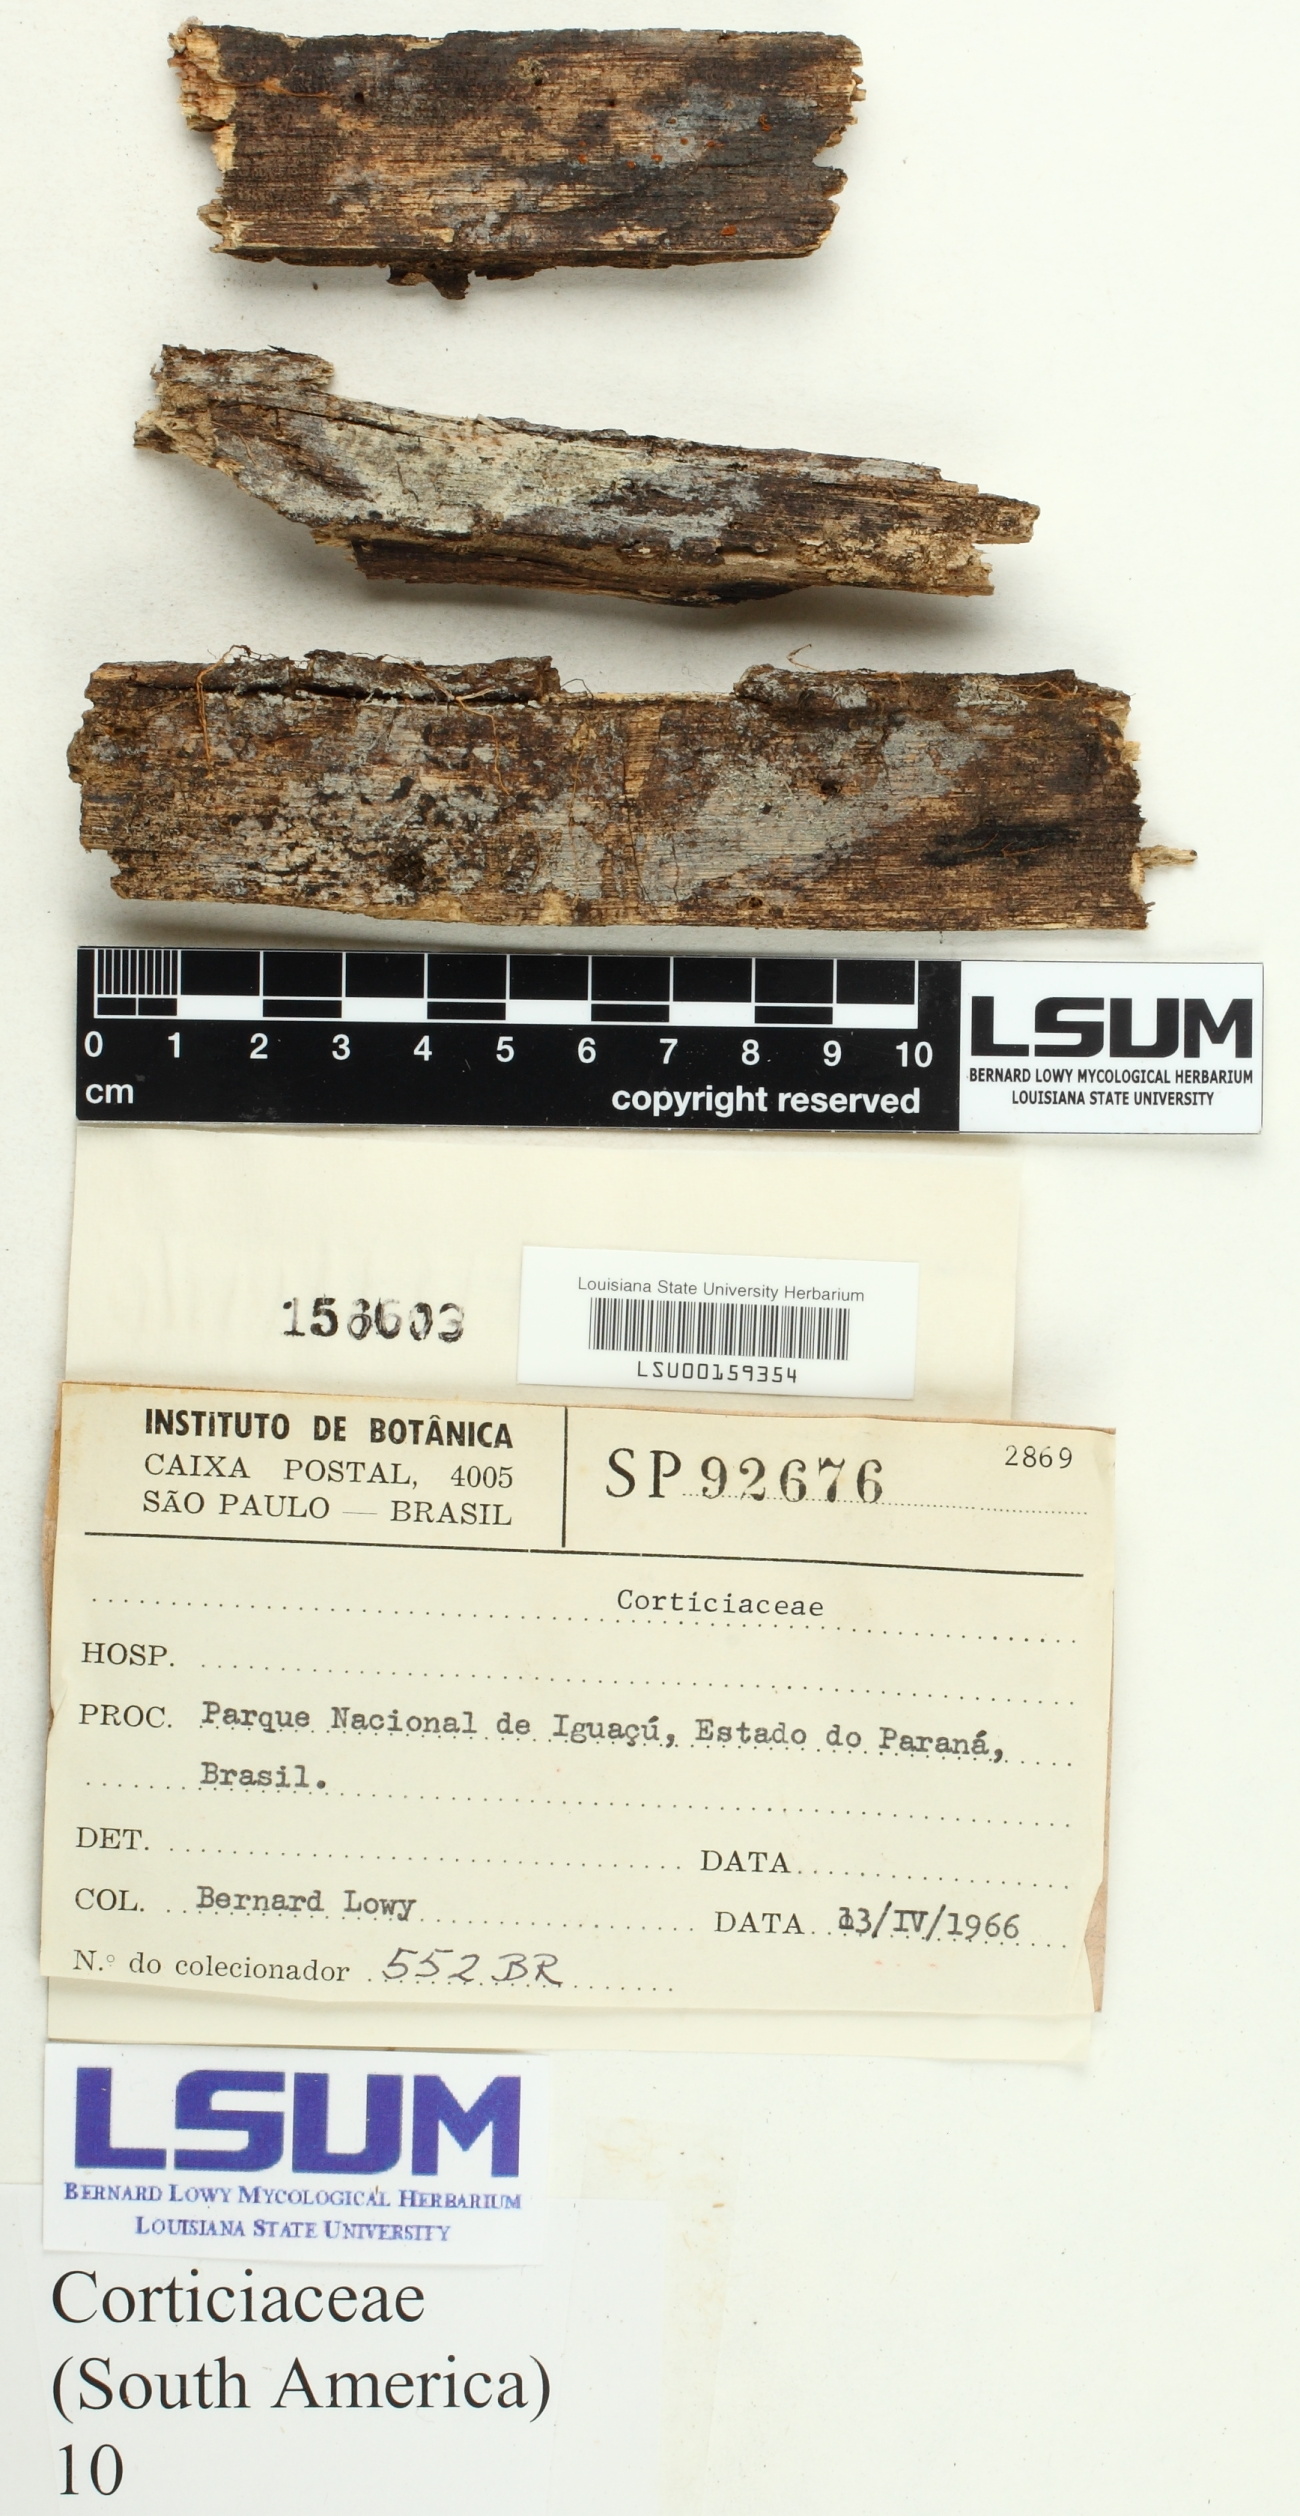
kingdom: Fungi
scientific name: Fungi
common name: Fungi
